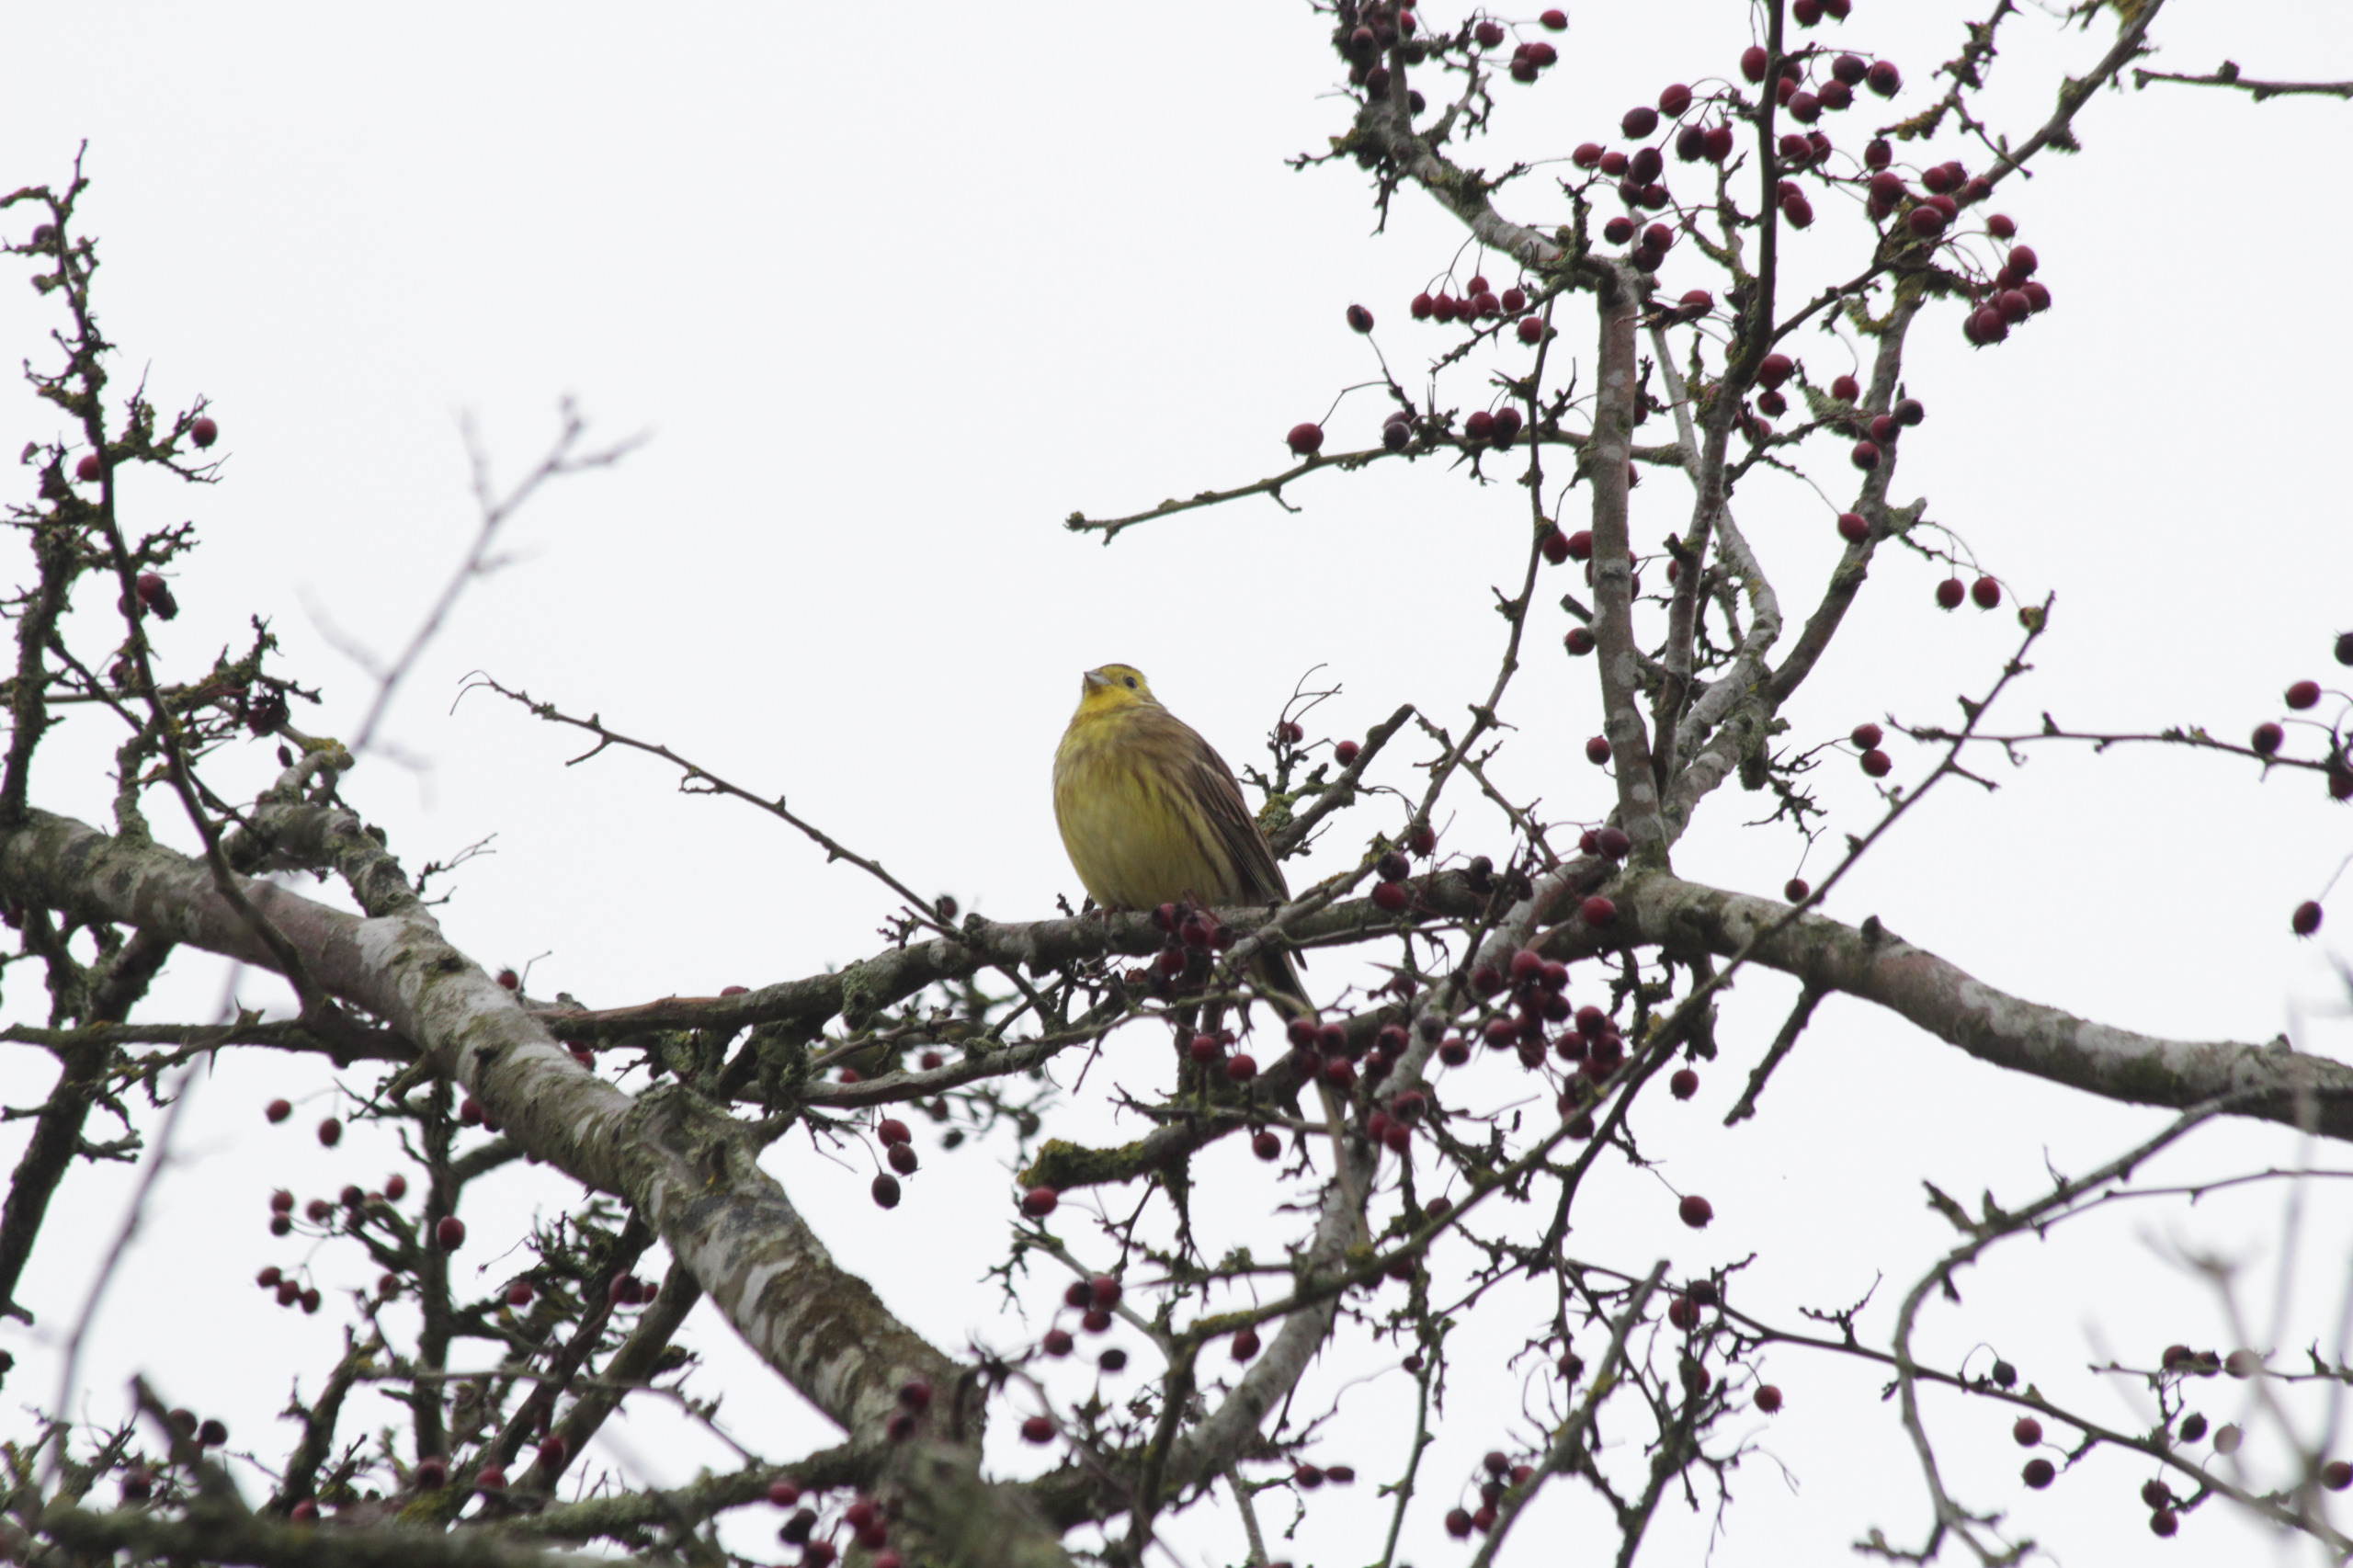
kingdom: Animalia
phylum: Chordata
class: Aves
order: Passeriformes
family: Emberizidae
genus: Emberiza
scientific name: Emberiza citrinella
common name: Gulspurv
